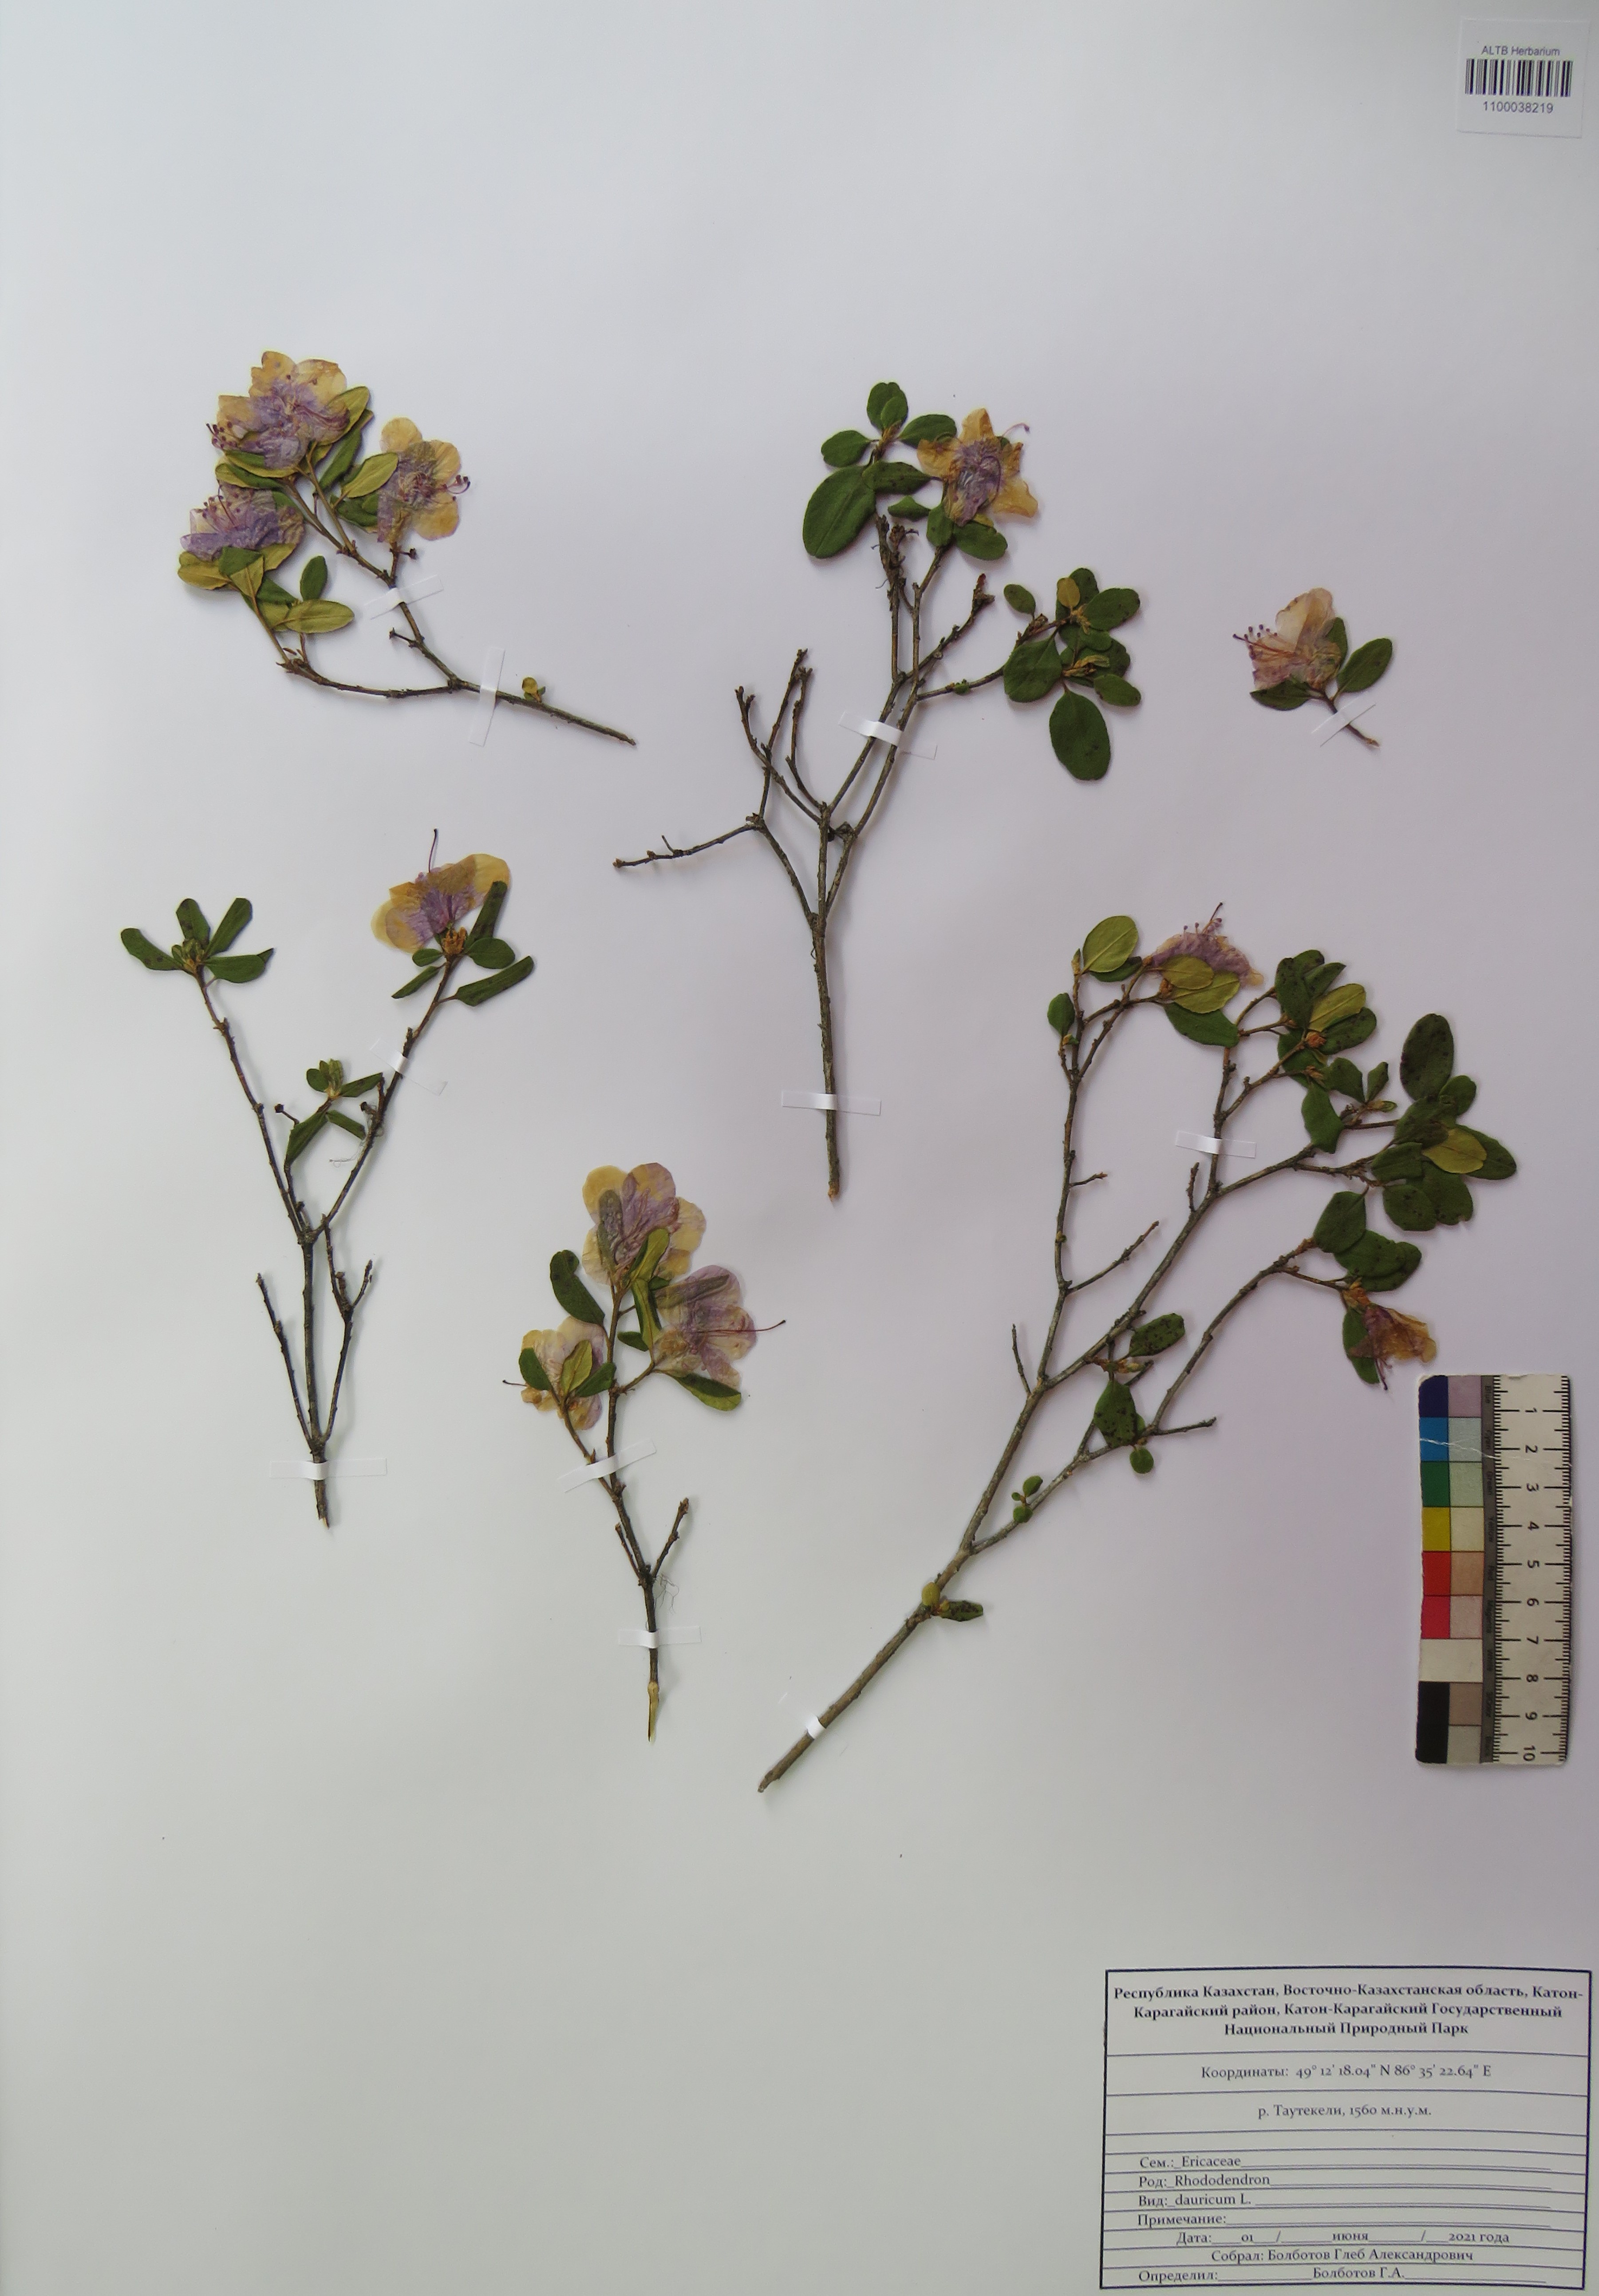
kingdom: Plantae
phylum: Tracheophyta
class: Magnoliopsida
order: Ericales
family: Ericaceae
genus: Rhododendron
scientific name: Rhododendron dauricum
